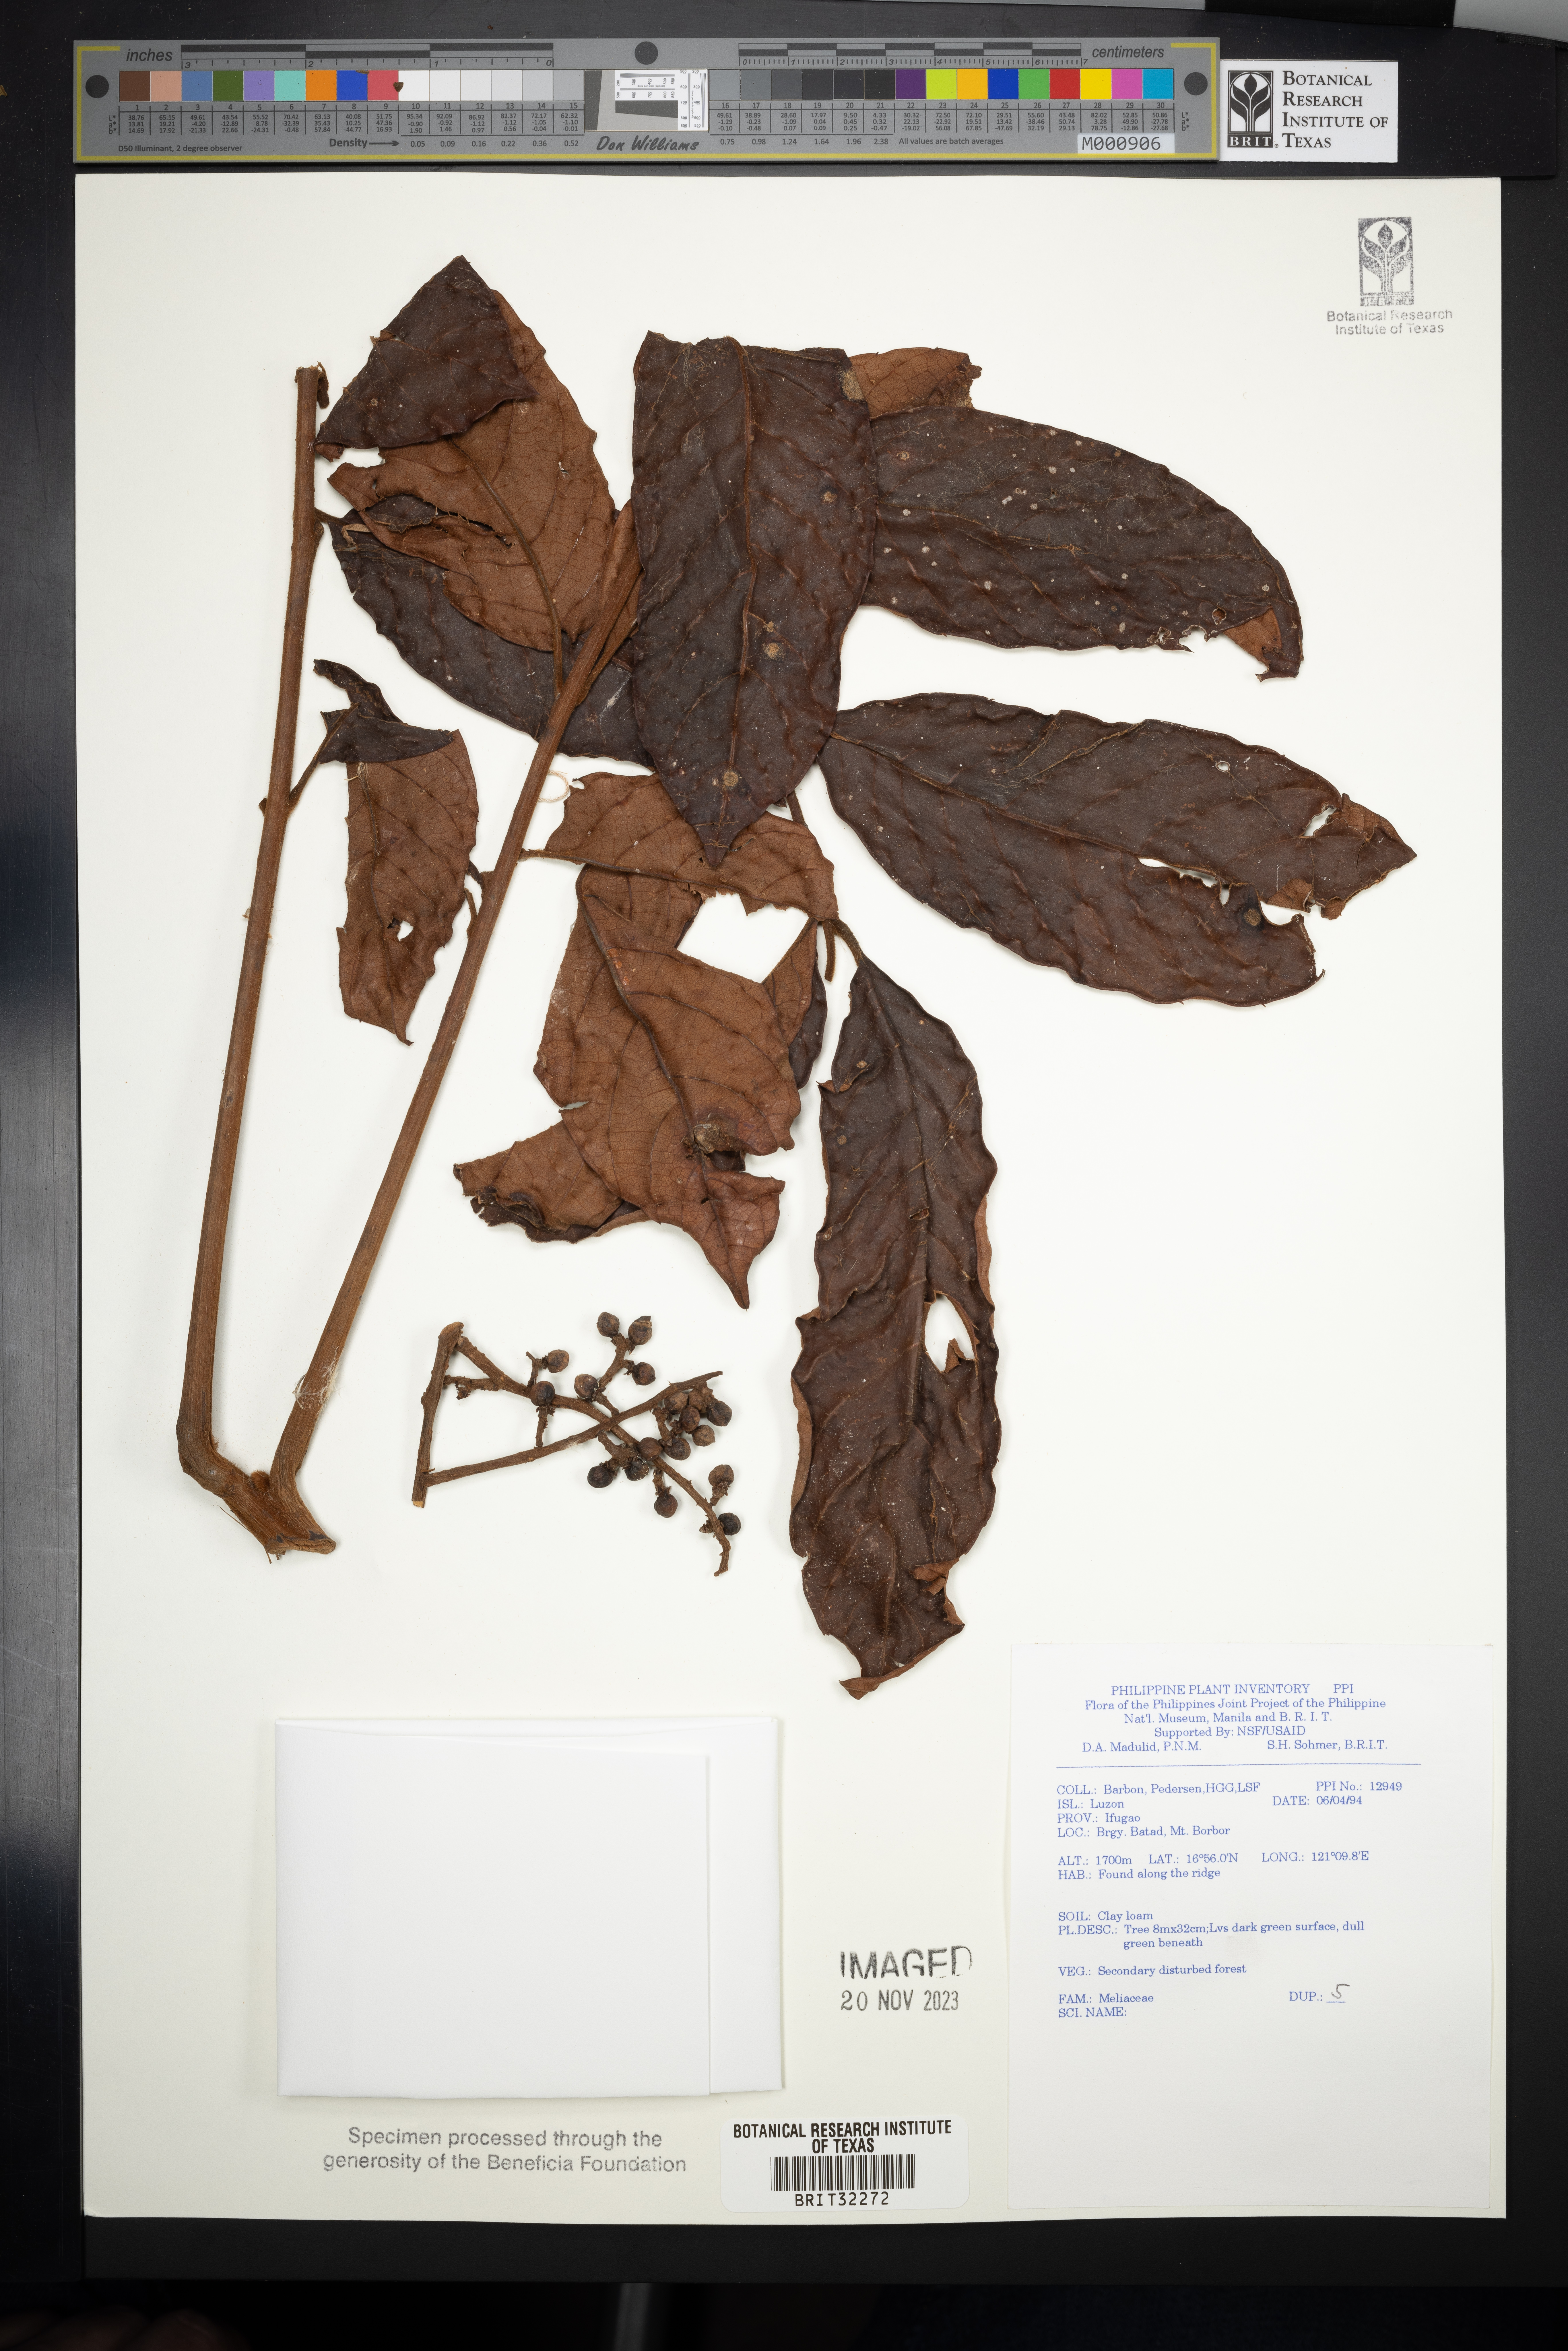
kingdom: Plantae
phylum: Tracheophyta
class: Magnoliopsida
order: Sapindales
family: Meliaceae
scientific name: Meliaceae
